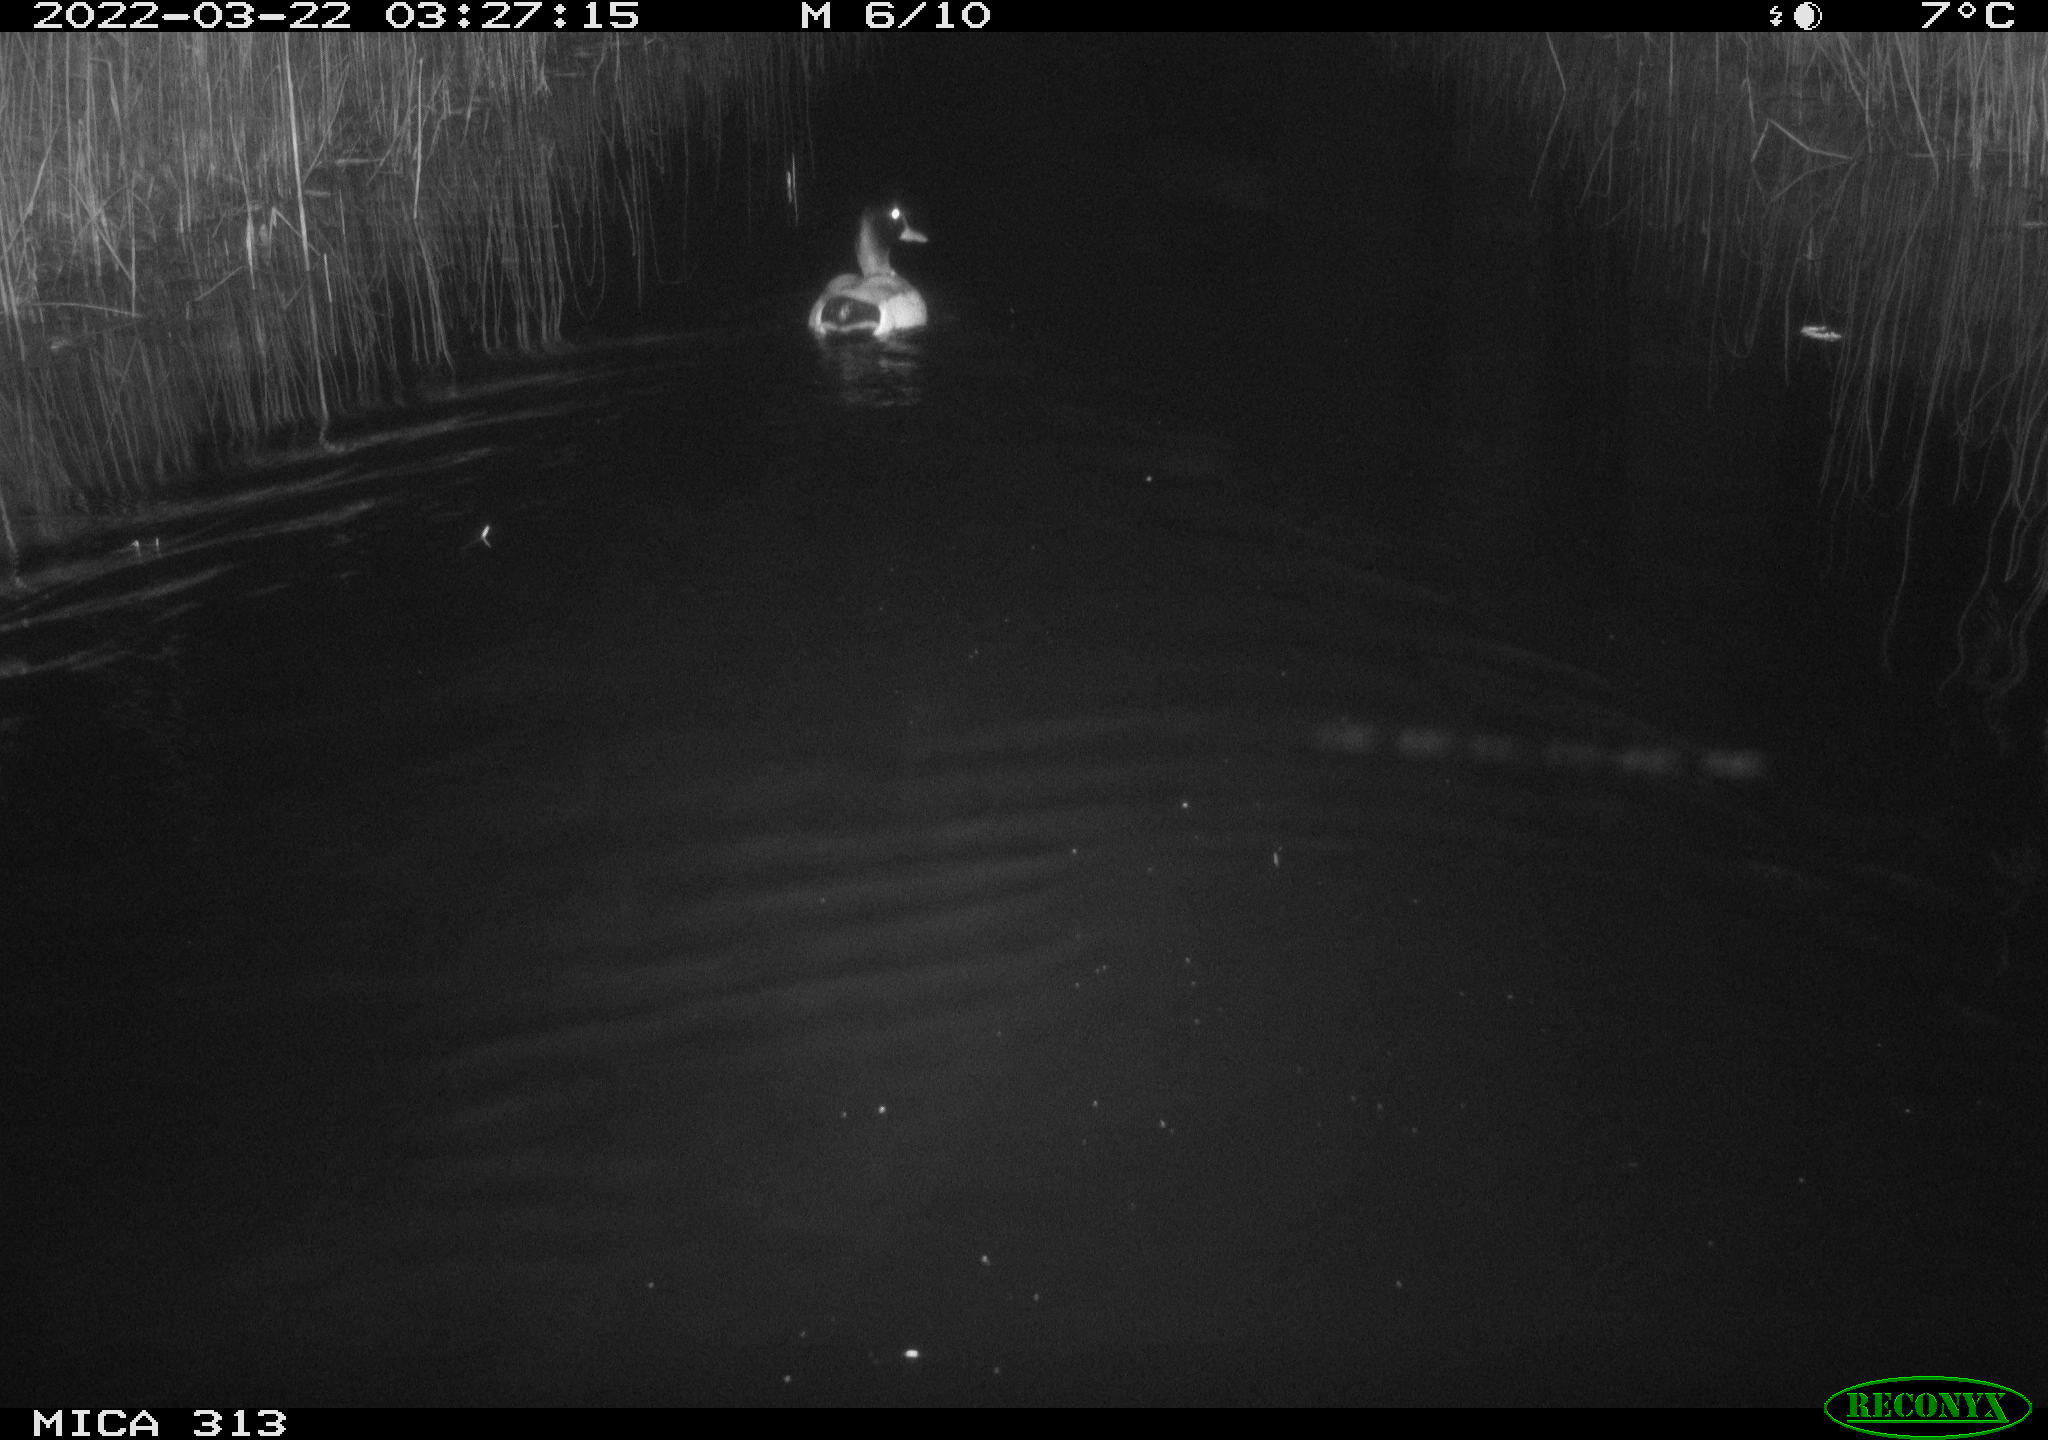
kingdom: Animalia
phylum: Chordata
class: Aves
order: Anseriformes
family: Anatidae
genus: Anas
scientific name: Anas platyrhynchos
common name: Mallard
